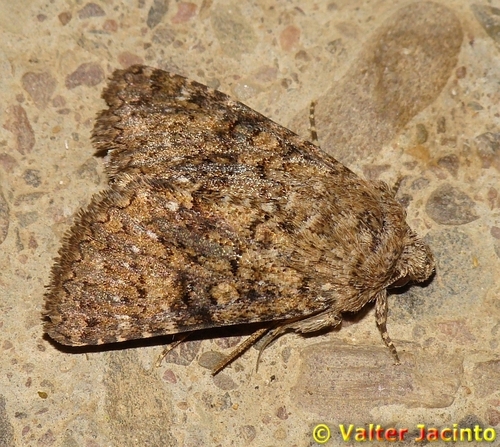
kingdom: Animalia
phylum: Arthropoda
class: Insecta
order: Lepidoptera
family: Noctuidae
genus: Recoropha
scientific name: Recoropha canteneri
